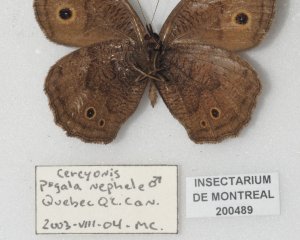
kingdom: Animalia
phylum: Arthropoda
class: Insecta
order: Lepidoptera
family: Nymphalidae
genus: Cercyonis
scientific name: Cercyonis pegala
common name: Common Wood-Nymph
